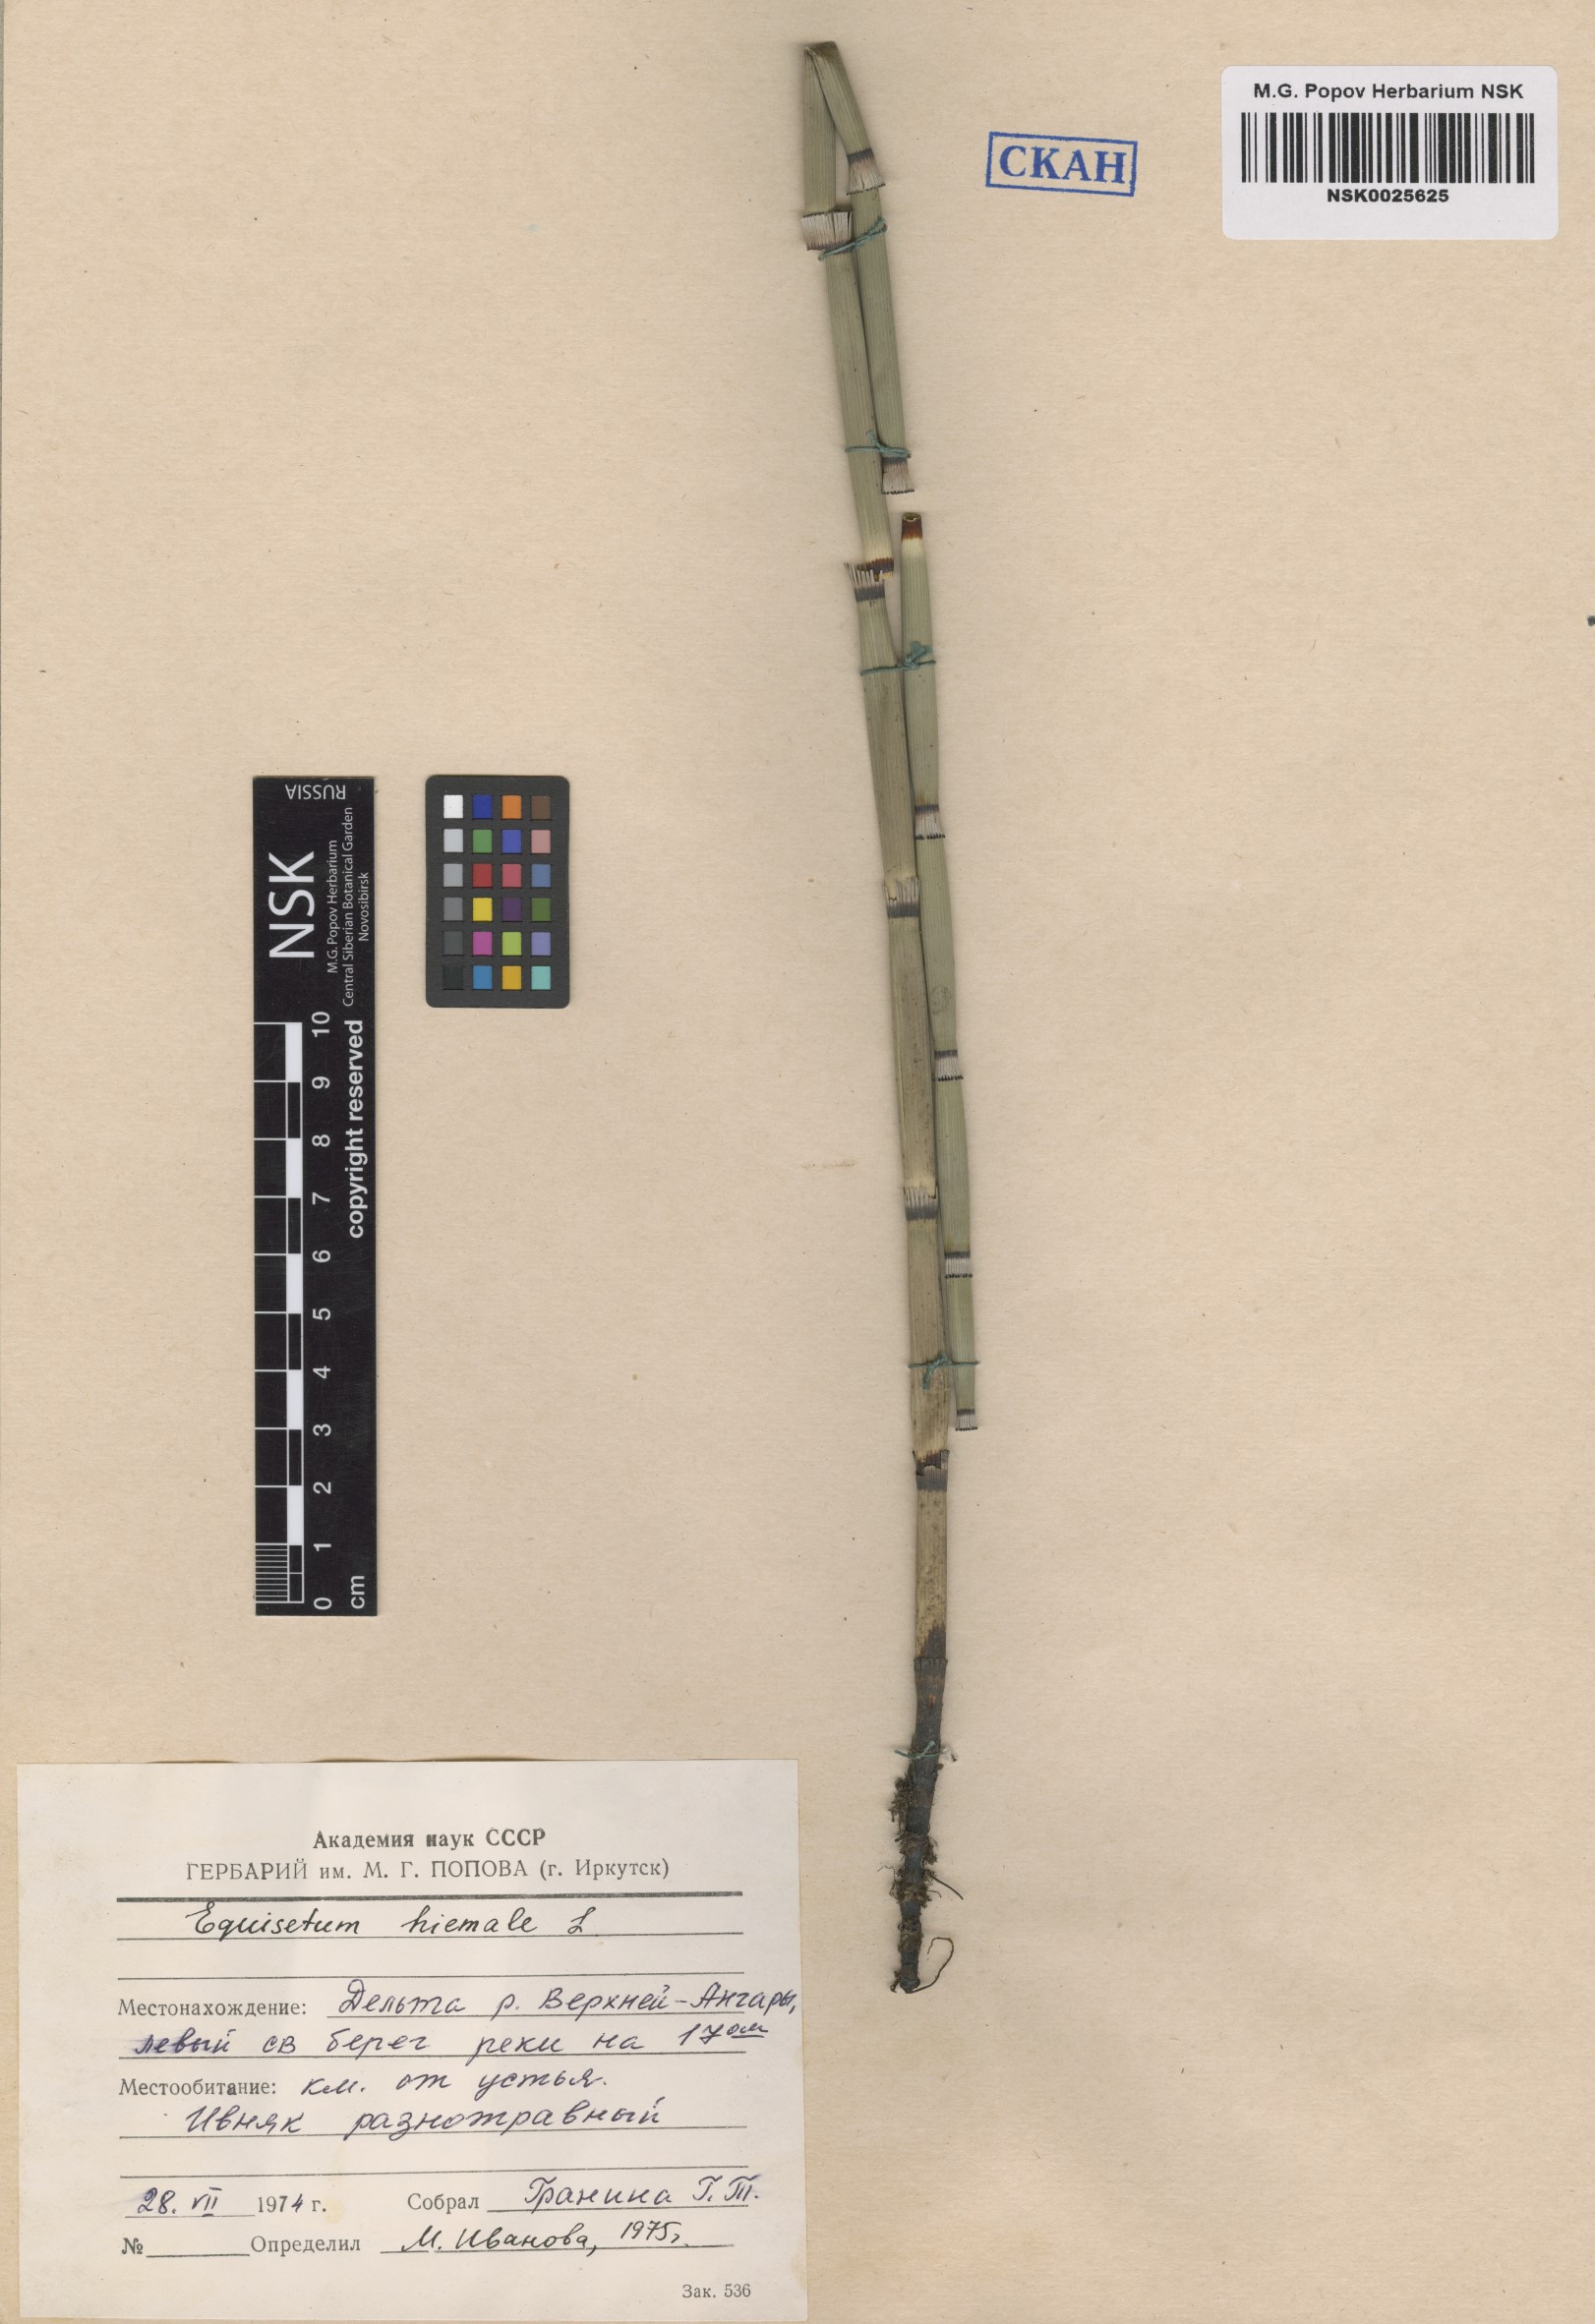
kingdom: Plantae
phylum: Tracheophyta
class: Polypodiopsida
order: Equisetales
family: Equisetaceae
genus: Equisetum
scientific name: Equisetum hyemale
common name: Rough horsetail
